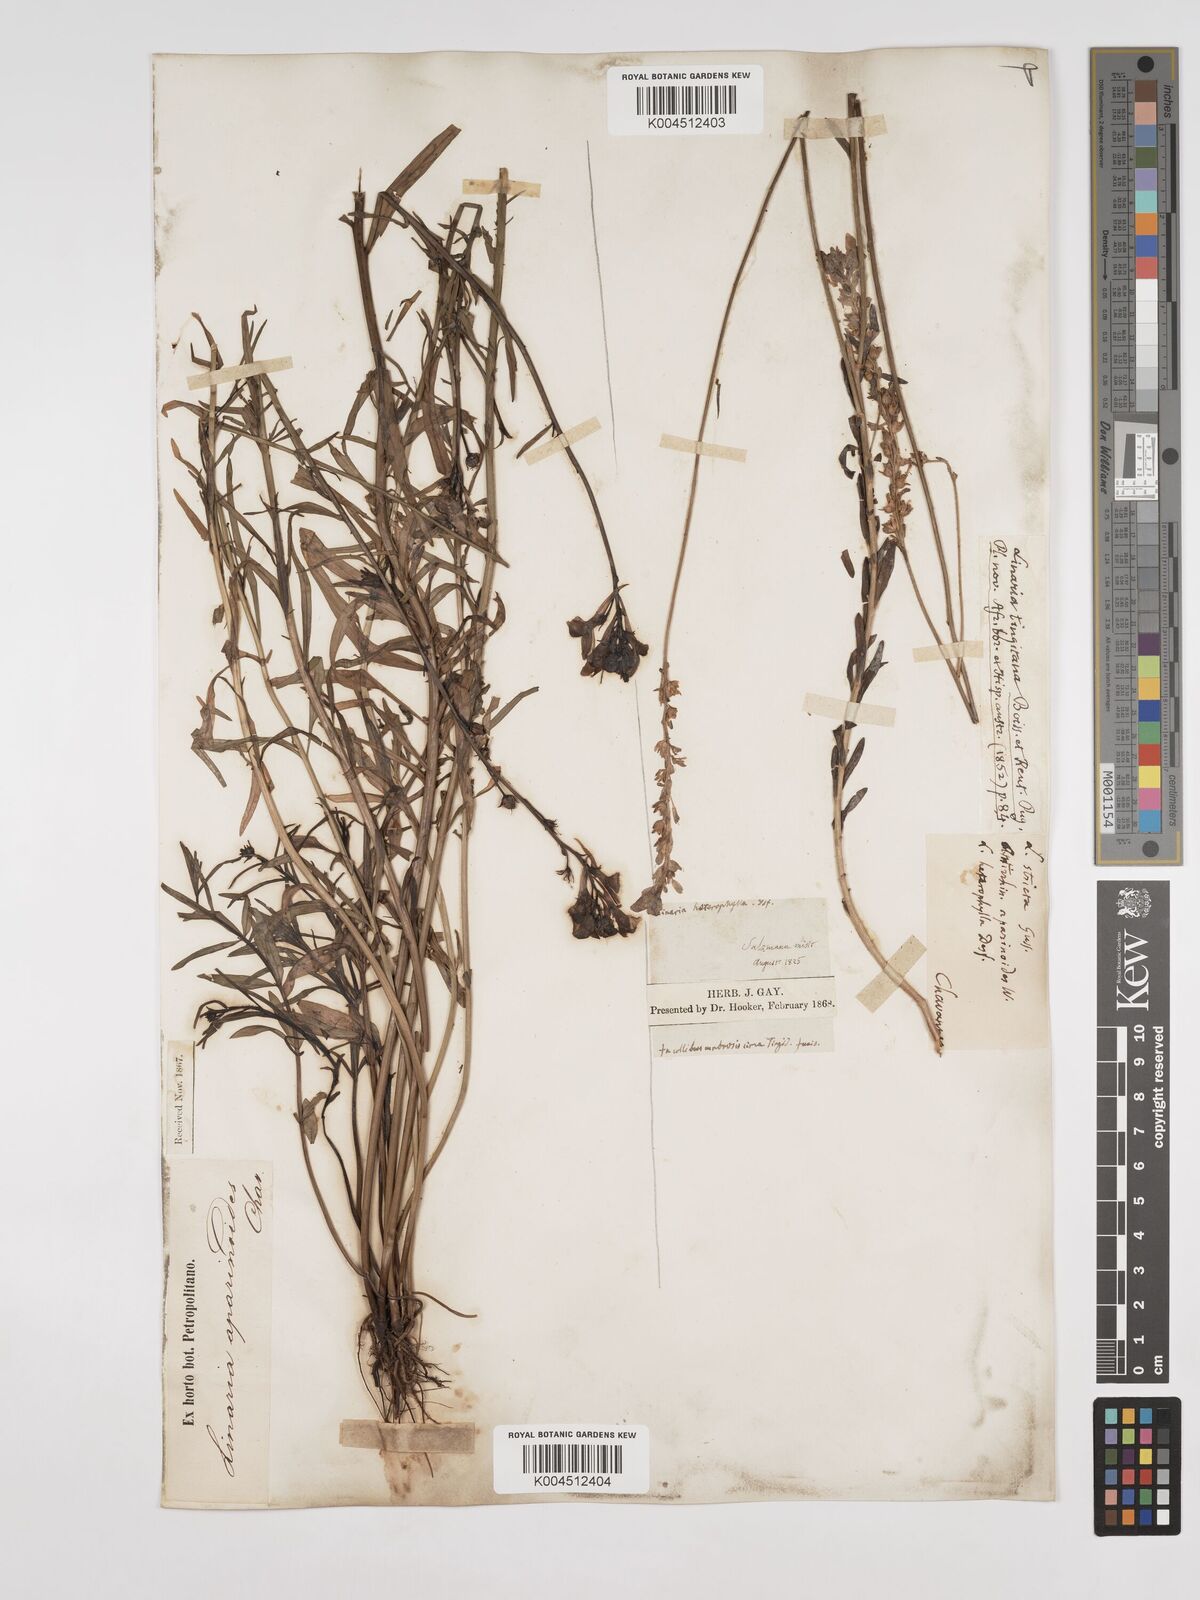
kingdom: Plantae
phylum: Tracheophyta
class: Magnoliopsida
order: Lamiales
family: Plantaginaceae
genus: Linaria
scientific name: Linaria multicaulis
